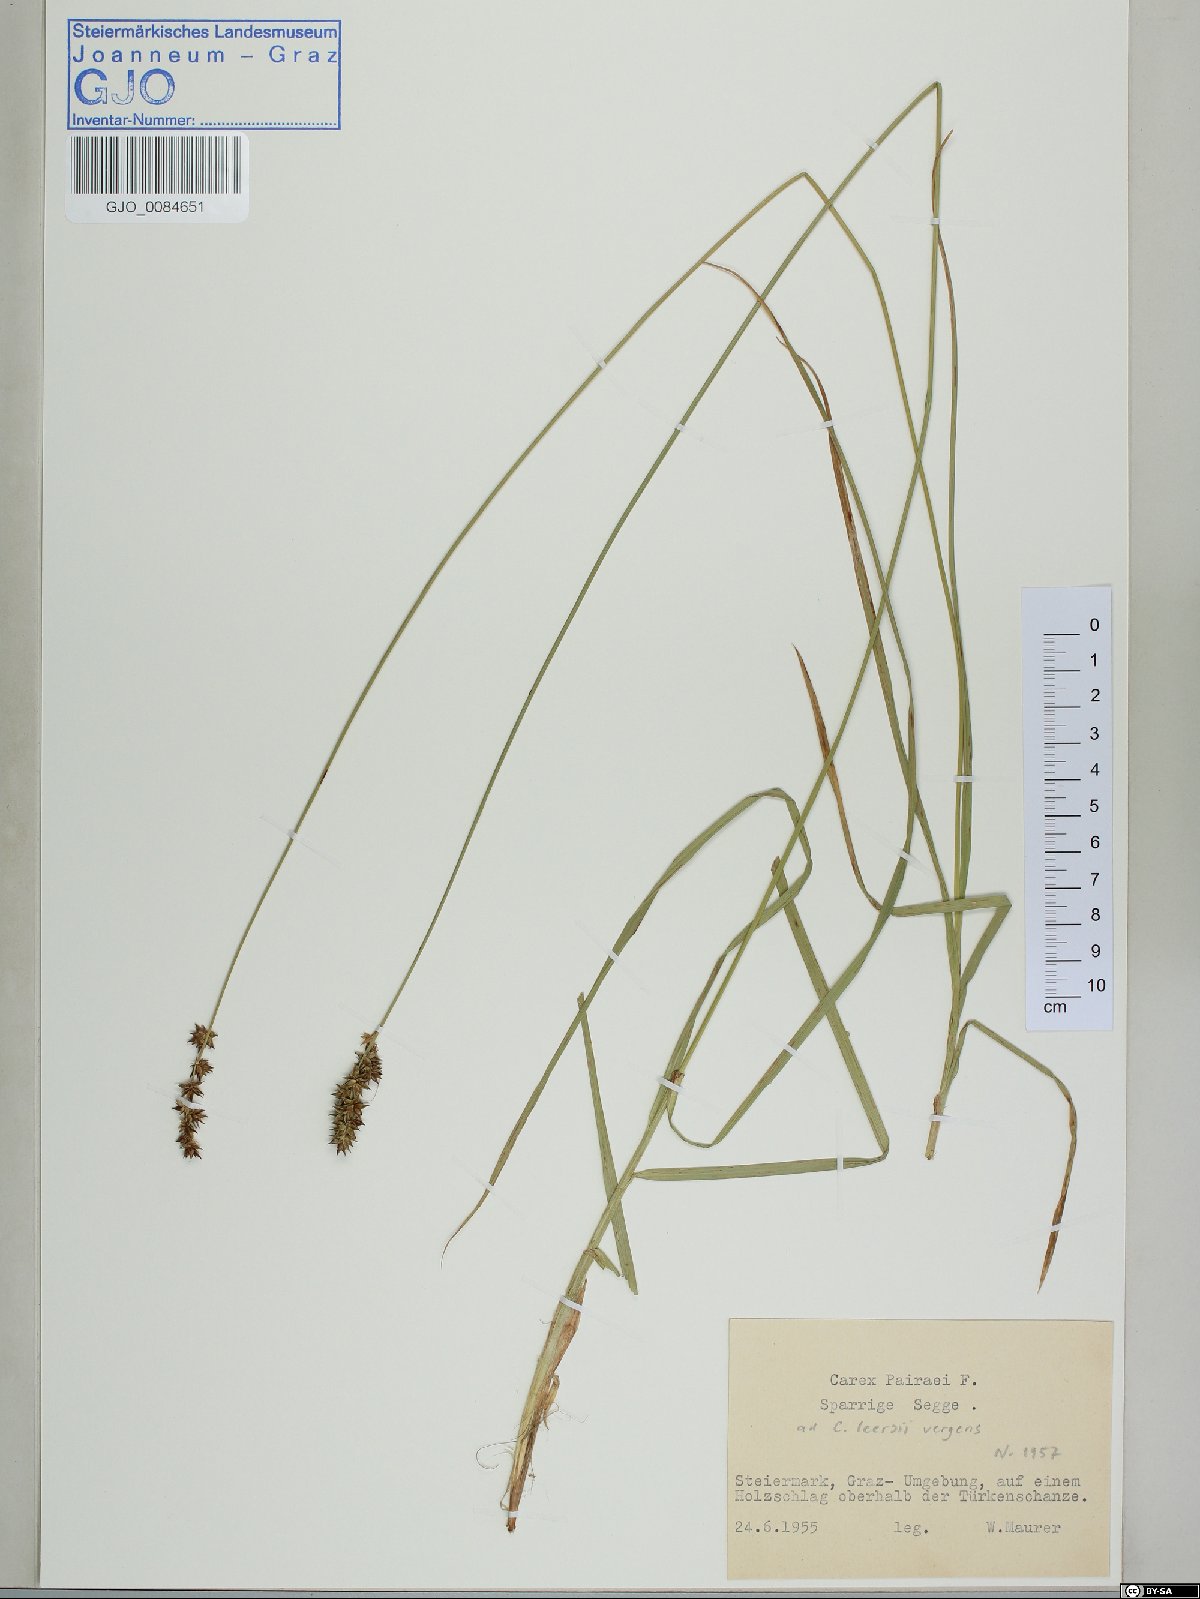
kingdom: Plantae
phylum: Tracheophyta
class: Liliopsida
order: Poales
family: Cyperaceae
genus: Carex
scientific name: Carex pairae
